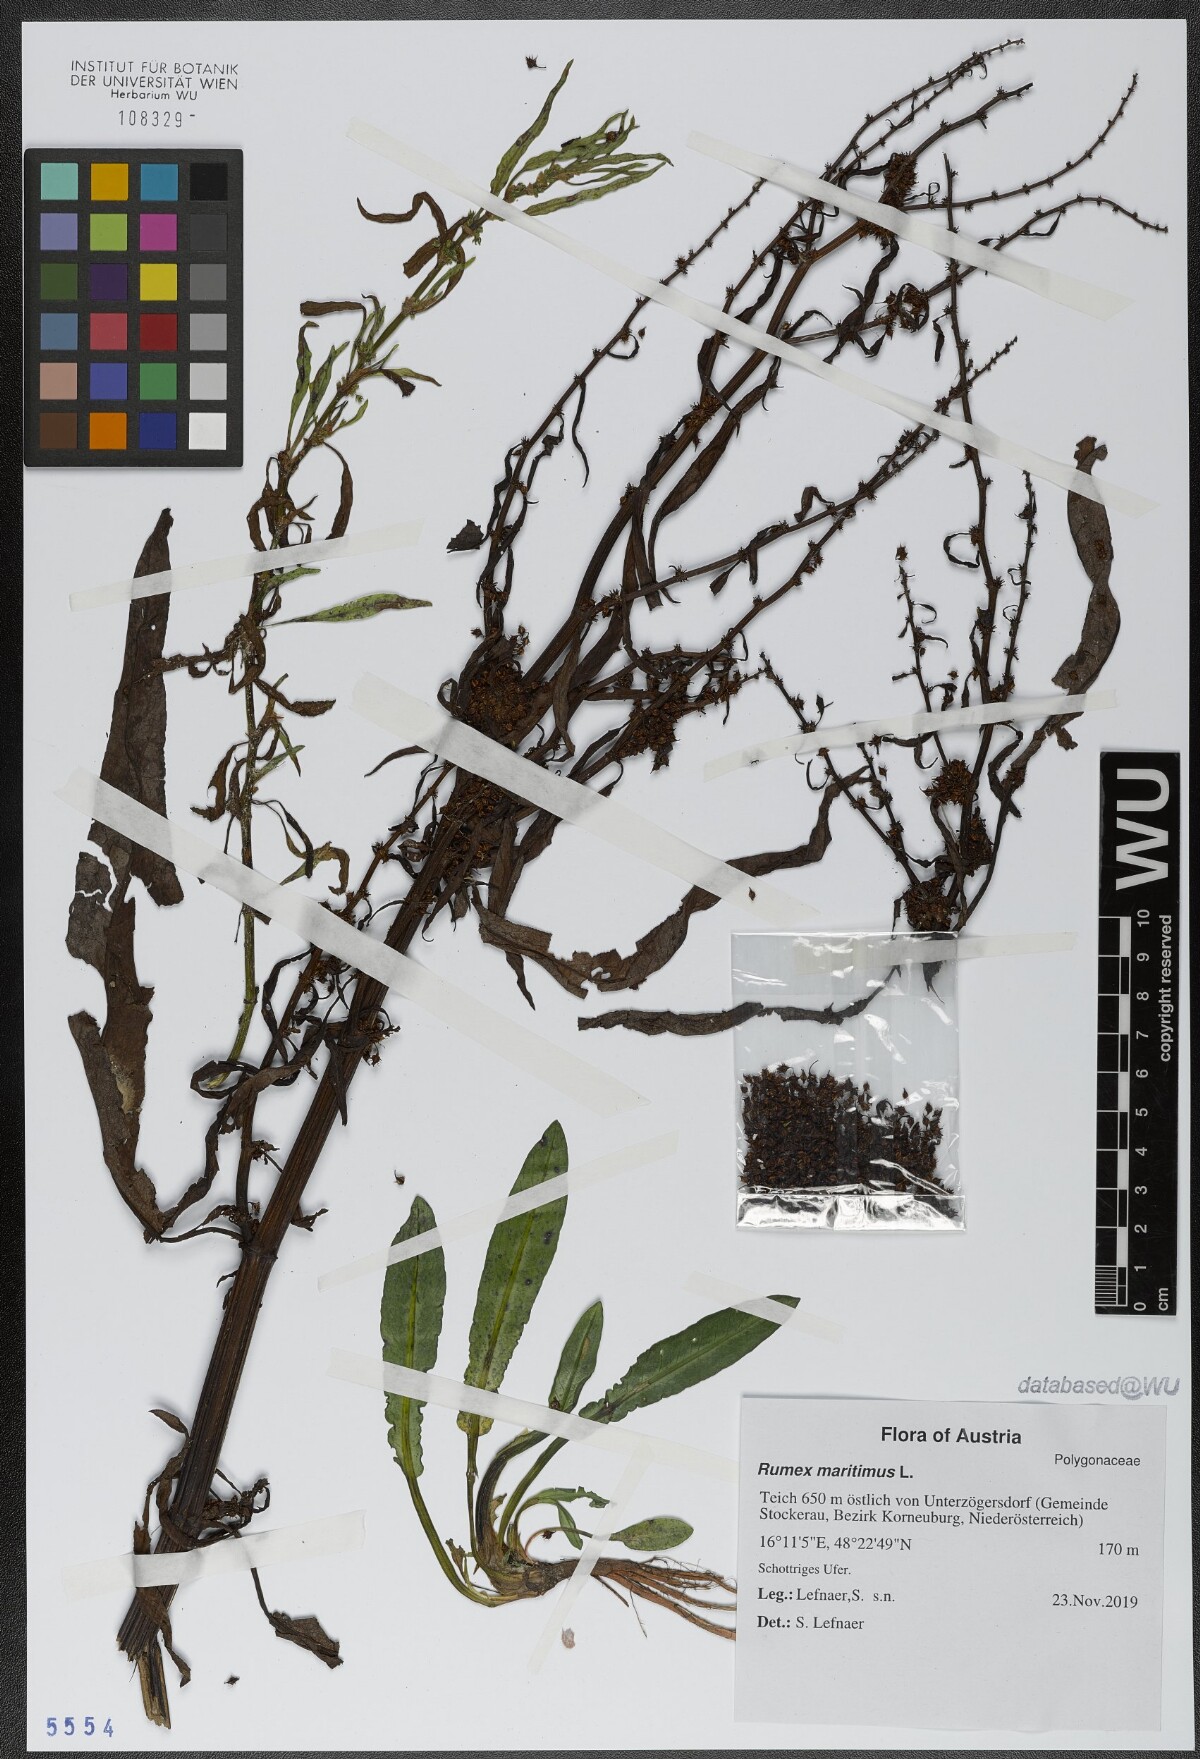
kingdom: Plantae
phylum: Tracheophyta
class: Magnoliopsida
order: Caryophyllales
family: Polygonaceae
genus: Rumex
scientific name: Rumex maritimus
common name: Golden dock
